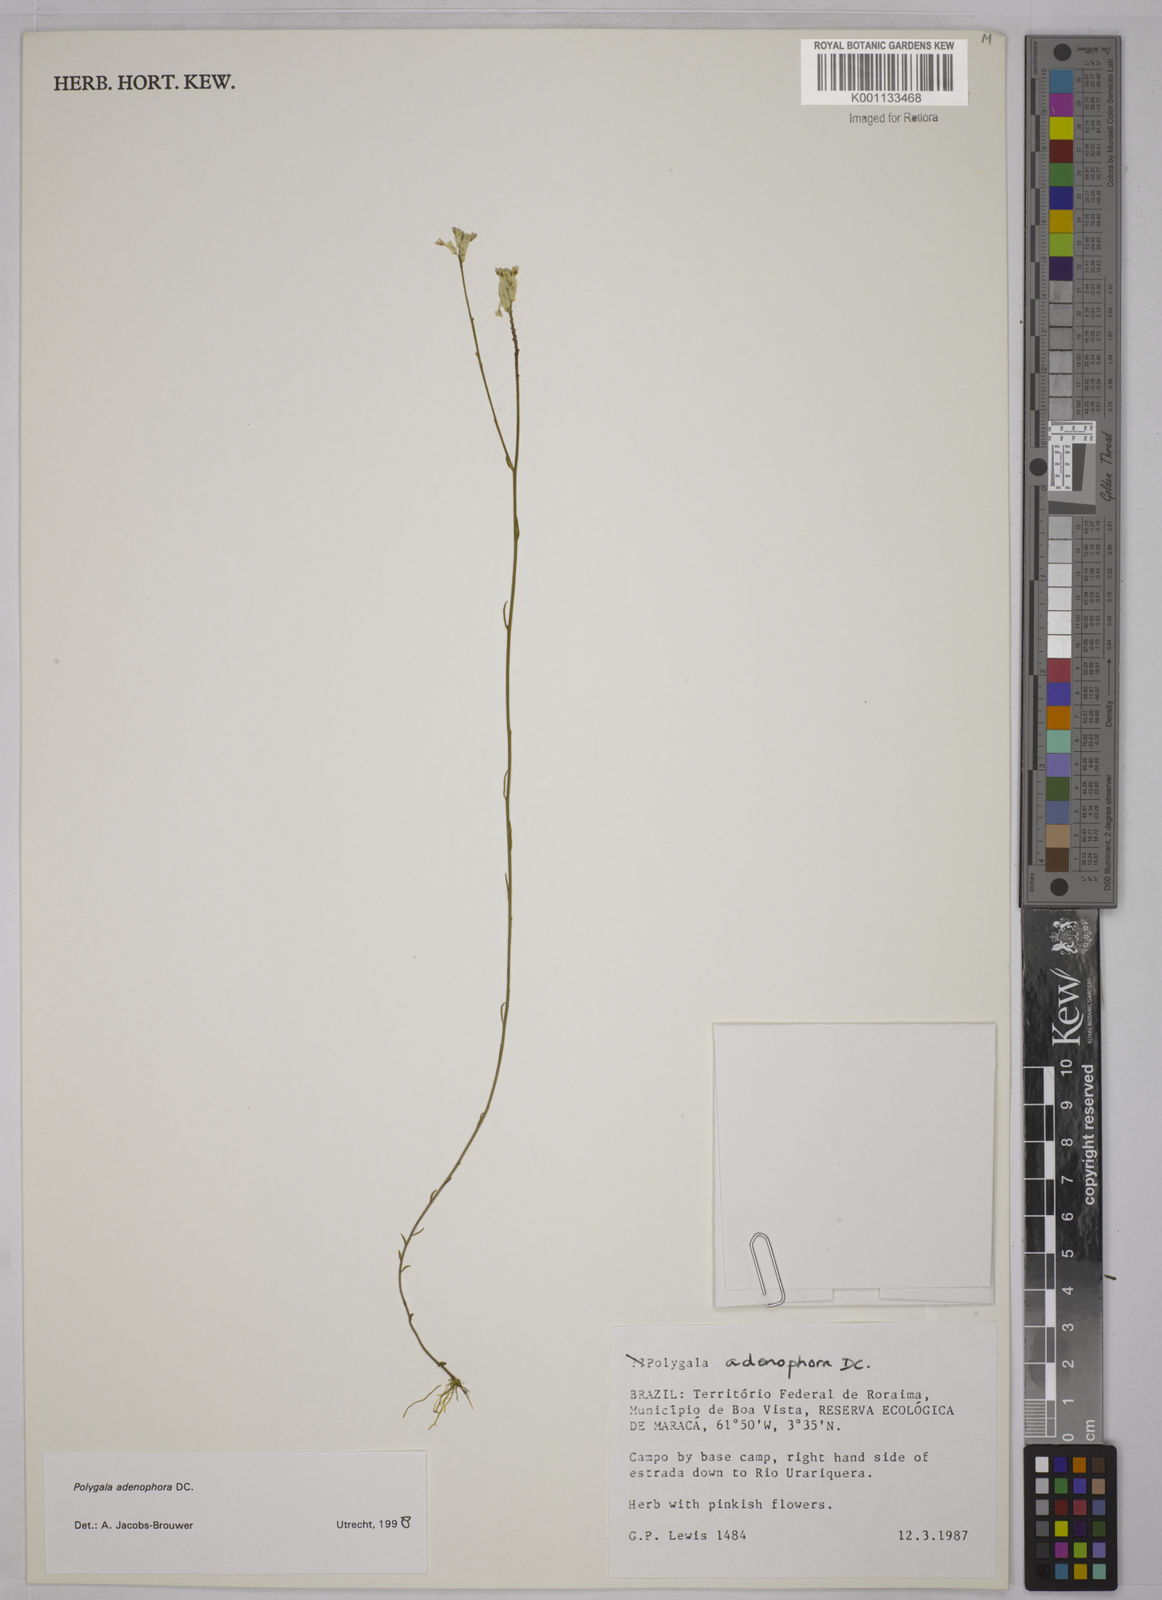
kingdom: Plantae
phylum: Tracheophyta
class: Magnoliopsida
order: Fabales
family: Polygalaceae
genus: Polygala
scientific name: Polygala adenophora
